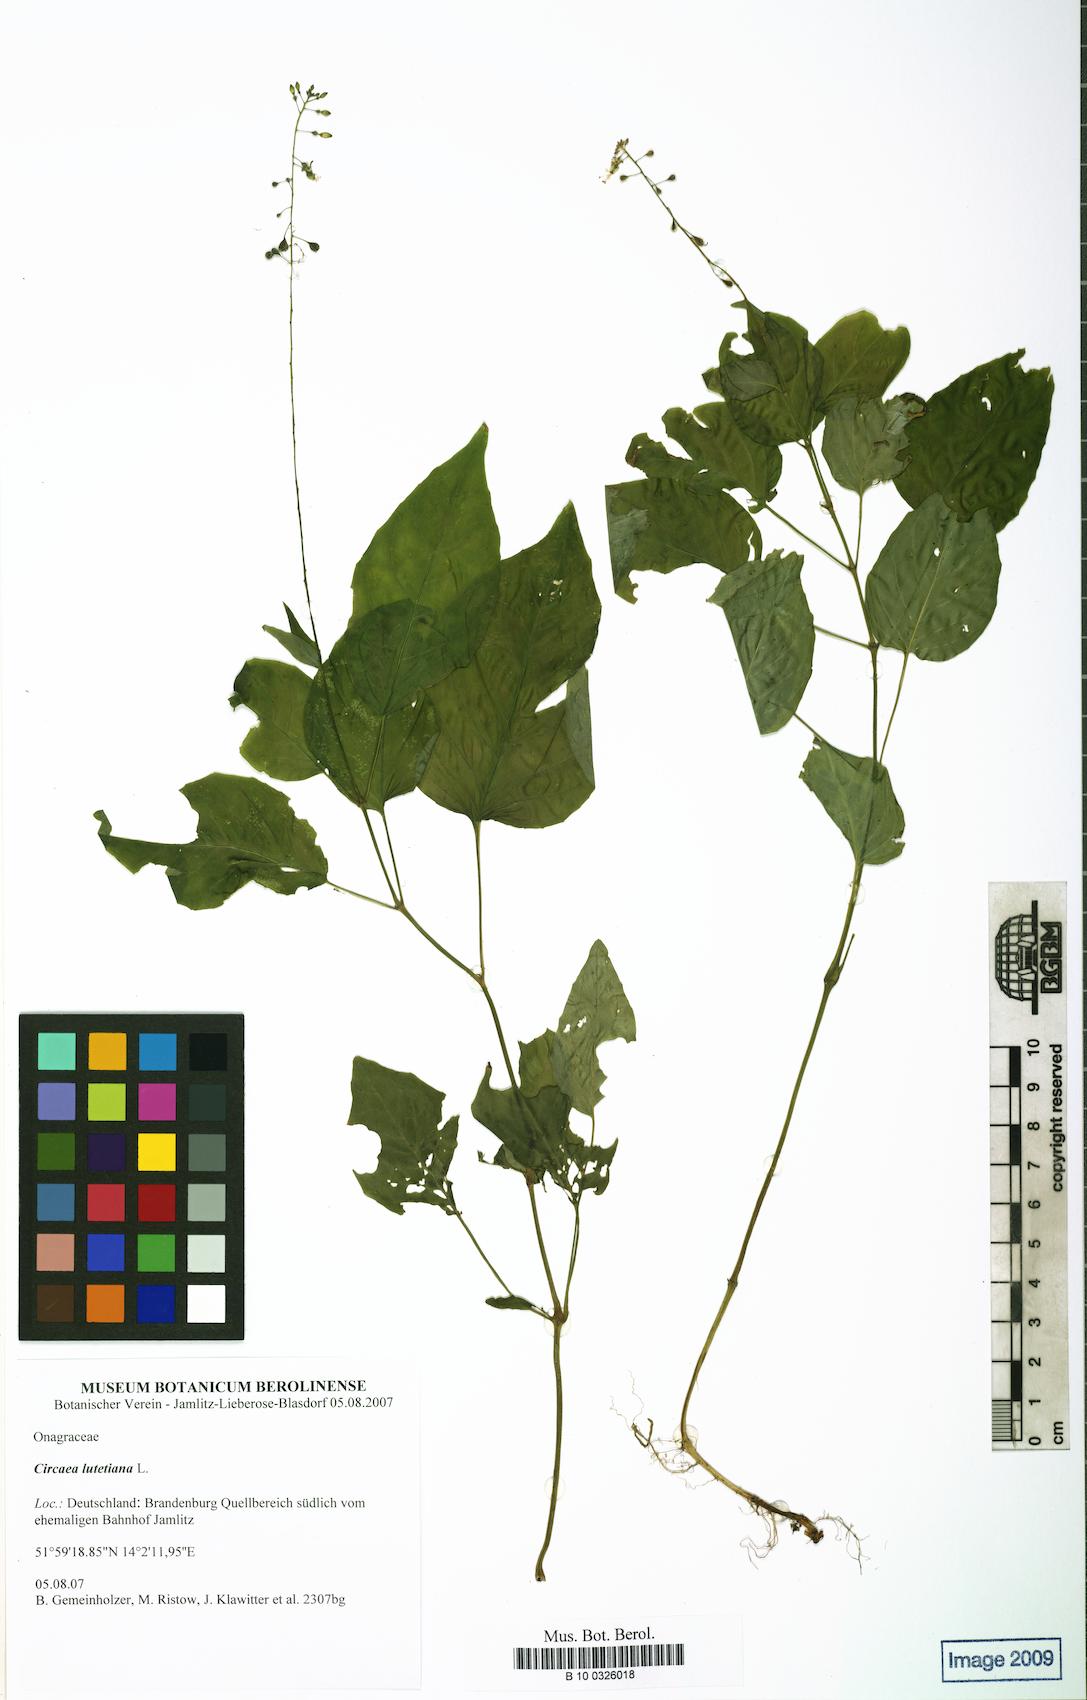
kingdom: Plantae
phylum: Tracheophyta
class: Magnoliopsida
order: Myrtales
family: Onagraceae
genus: Circaea
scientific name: Circaea lutetiana
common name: Enchanter's-nightshade
